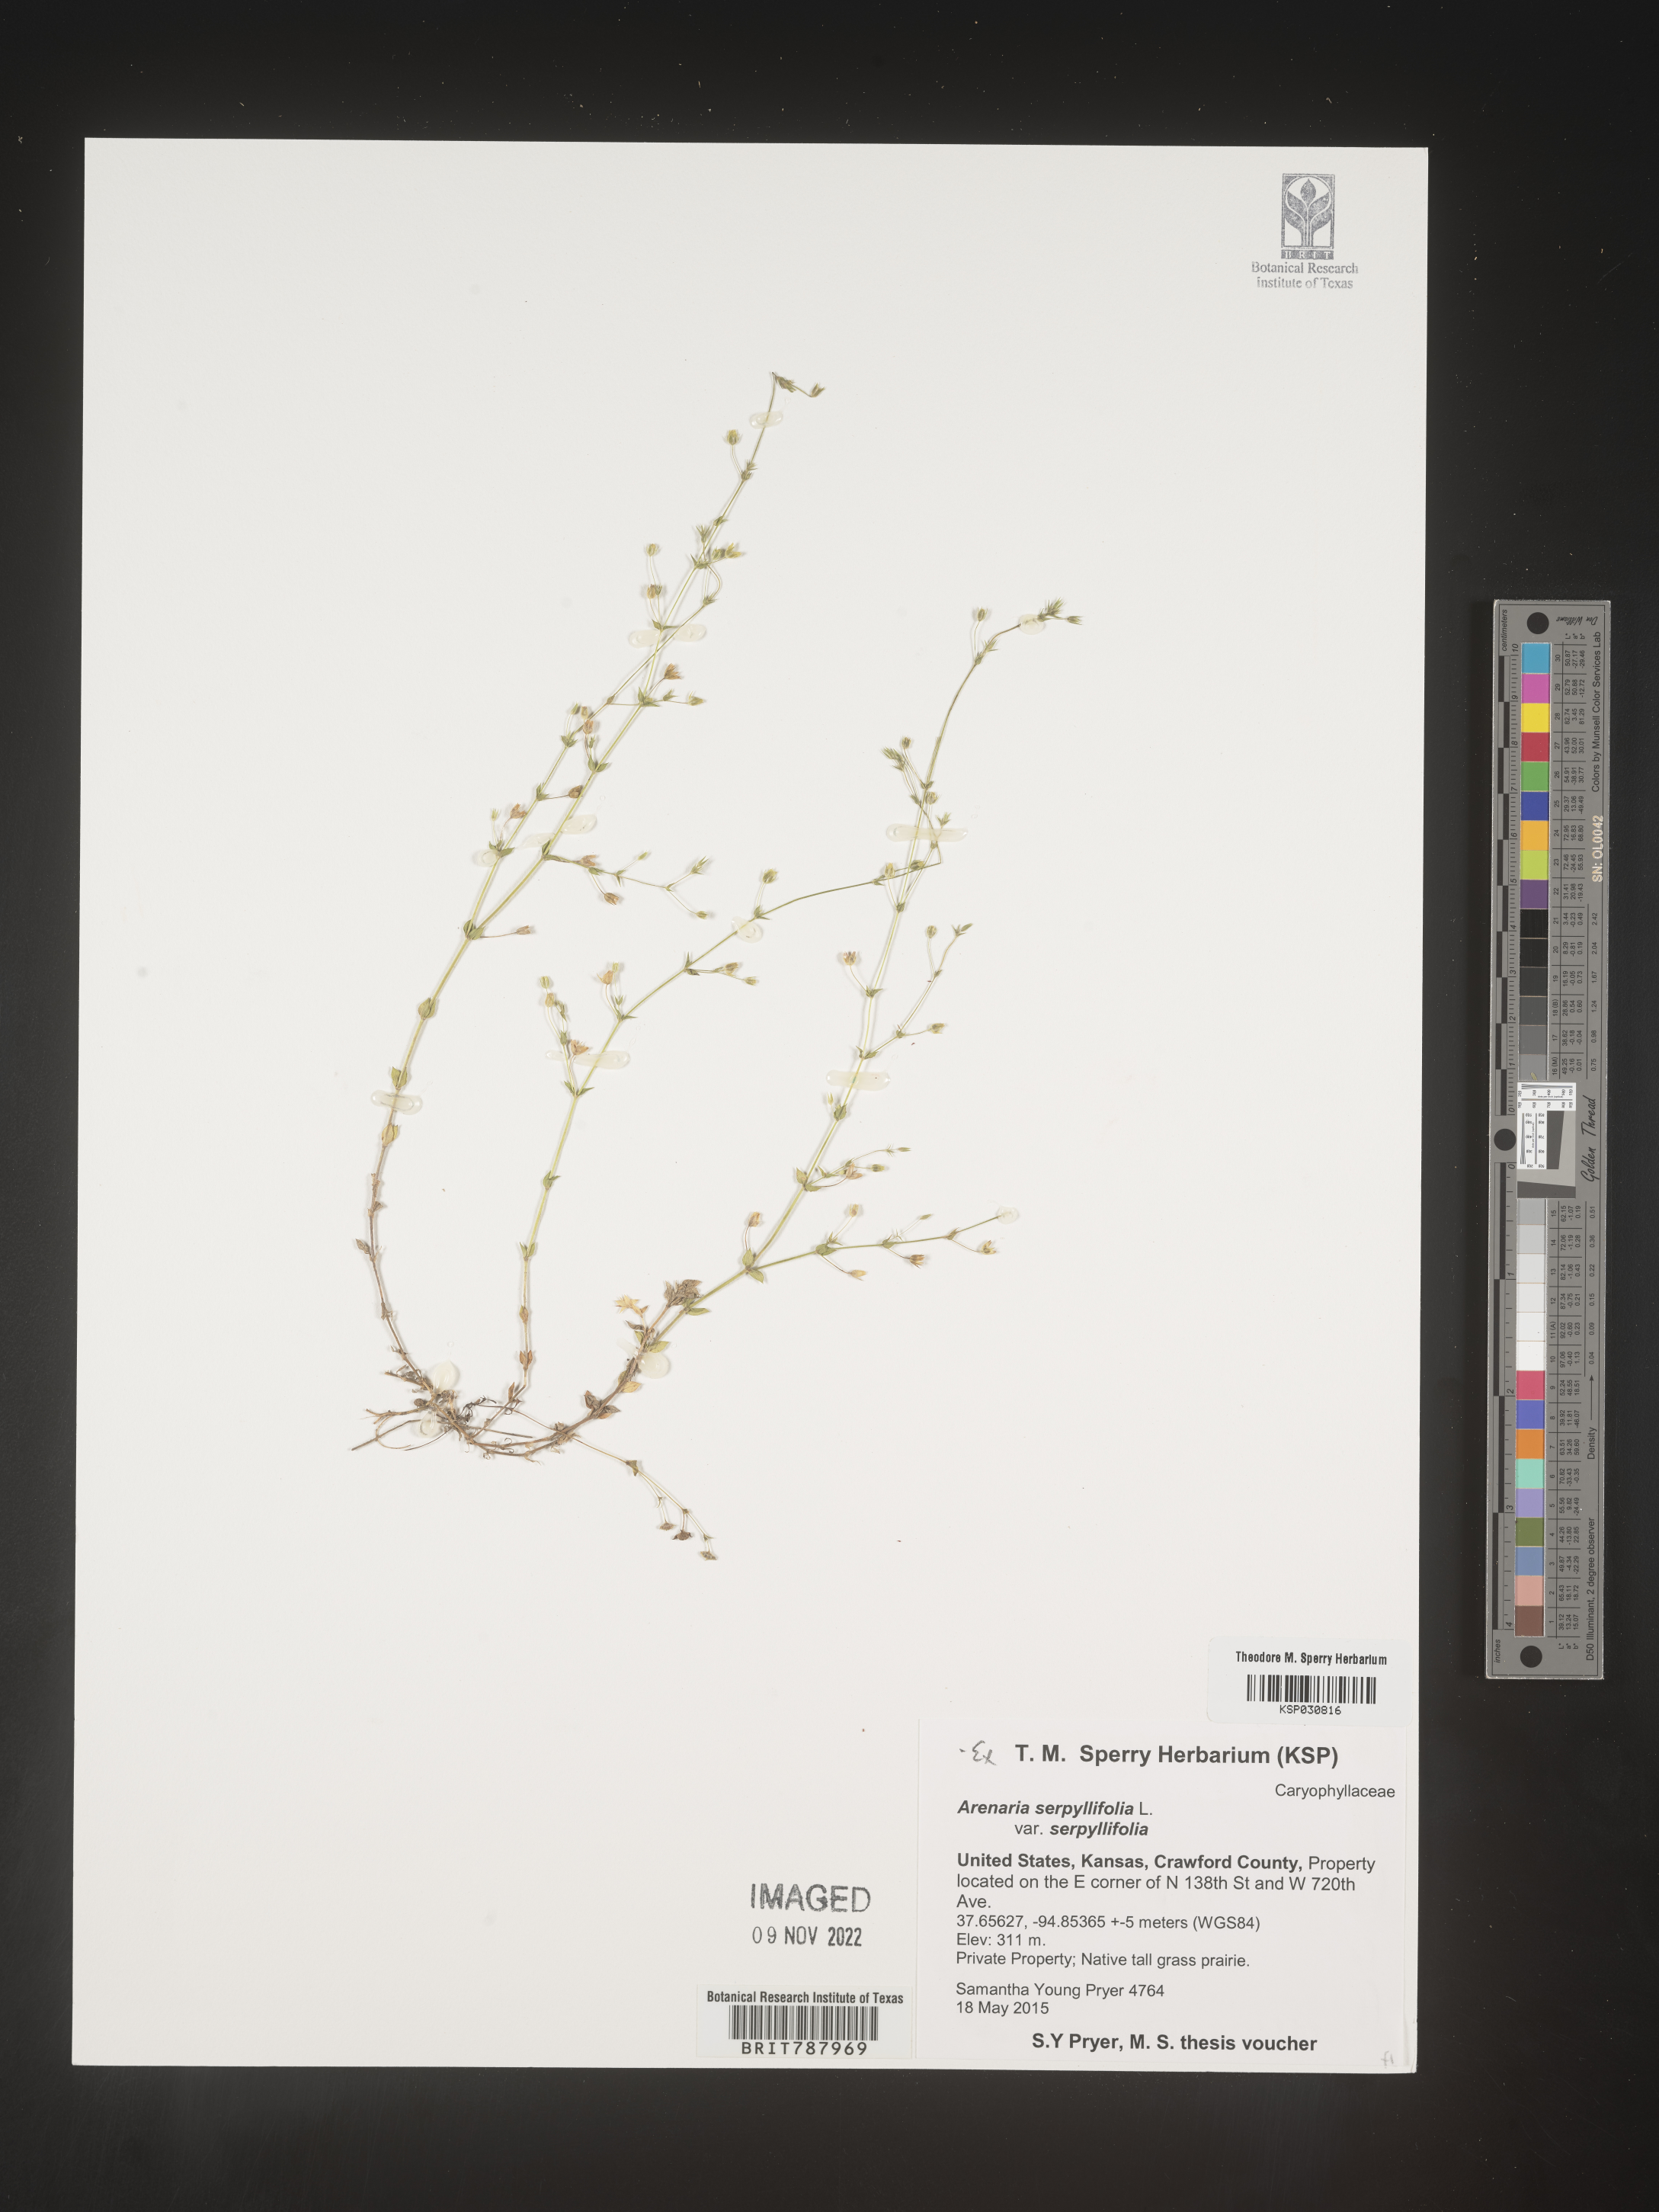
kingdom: Plantae
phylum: Tracheophyta
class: Magnoliopsida
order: Caryophyllales
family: Caryophyllaceae
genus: Arenaria
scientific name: Arenaria serpyllifolia
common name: Thyme-leaved sandwort
